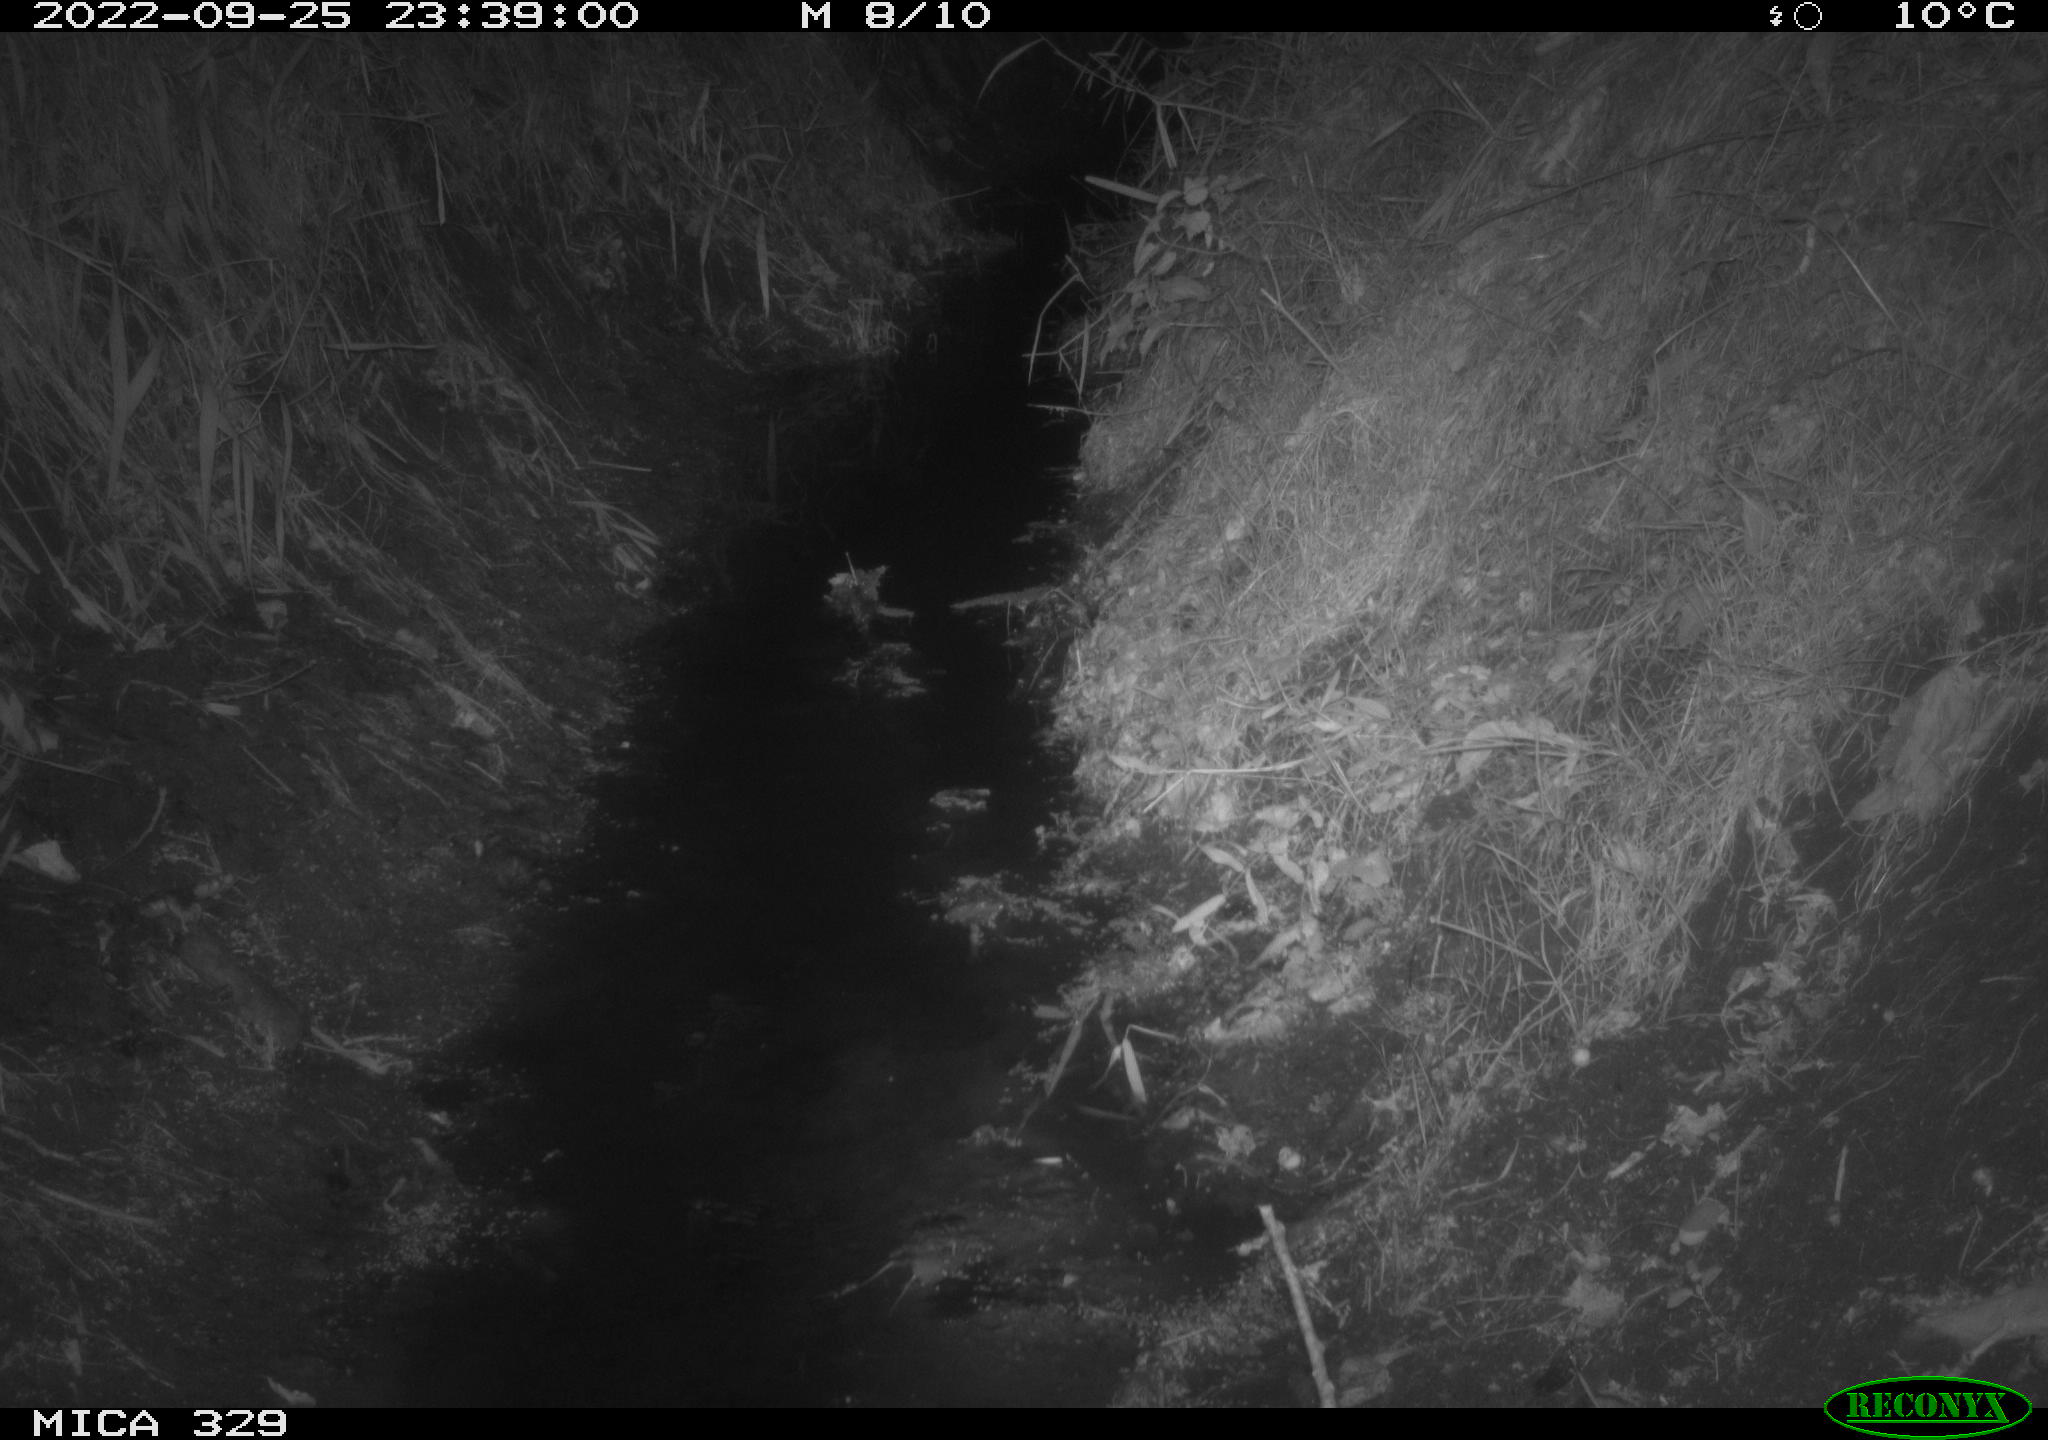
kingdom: Animalia
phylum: Chordata
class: Mammalia
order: Rodentia
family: Muridae
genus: Rattus
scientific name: Rattus norvegicus
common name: Brown rat
